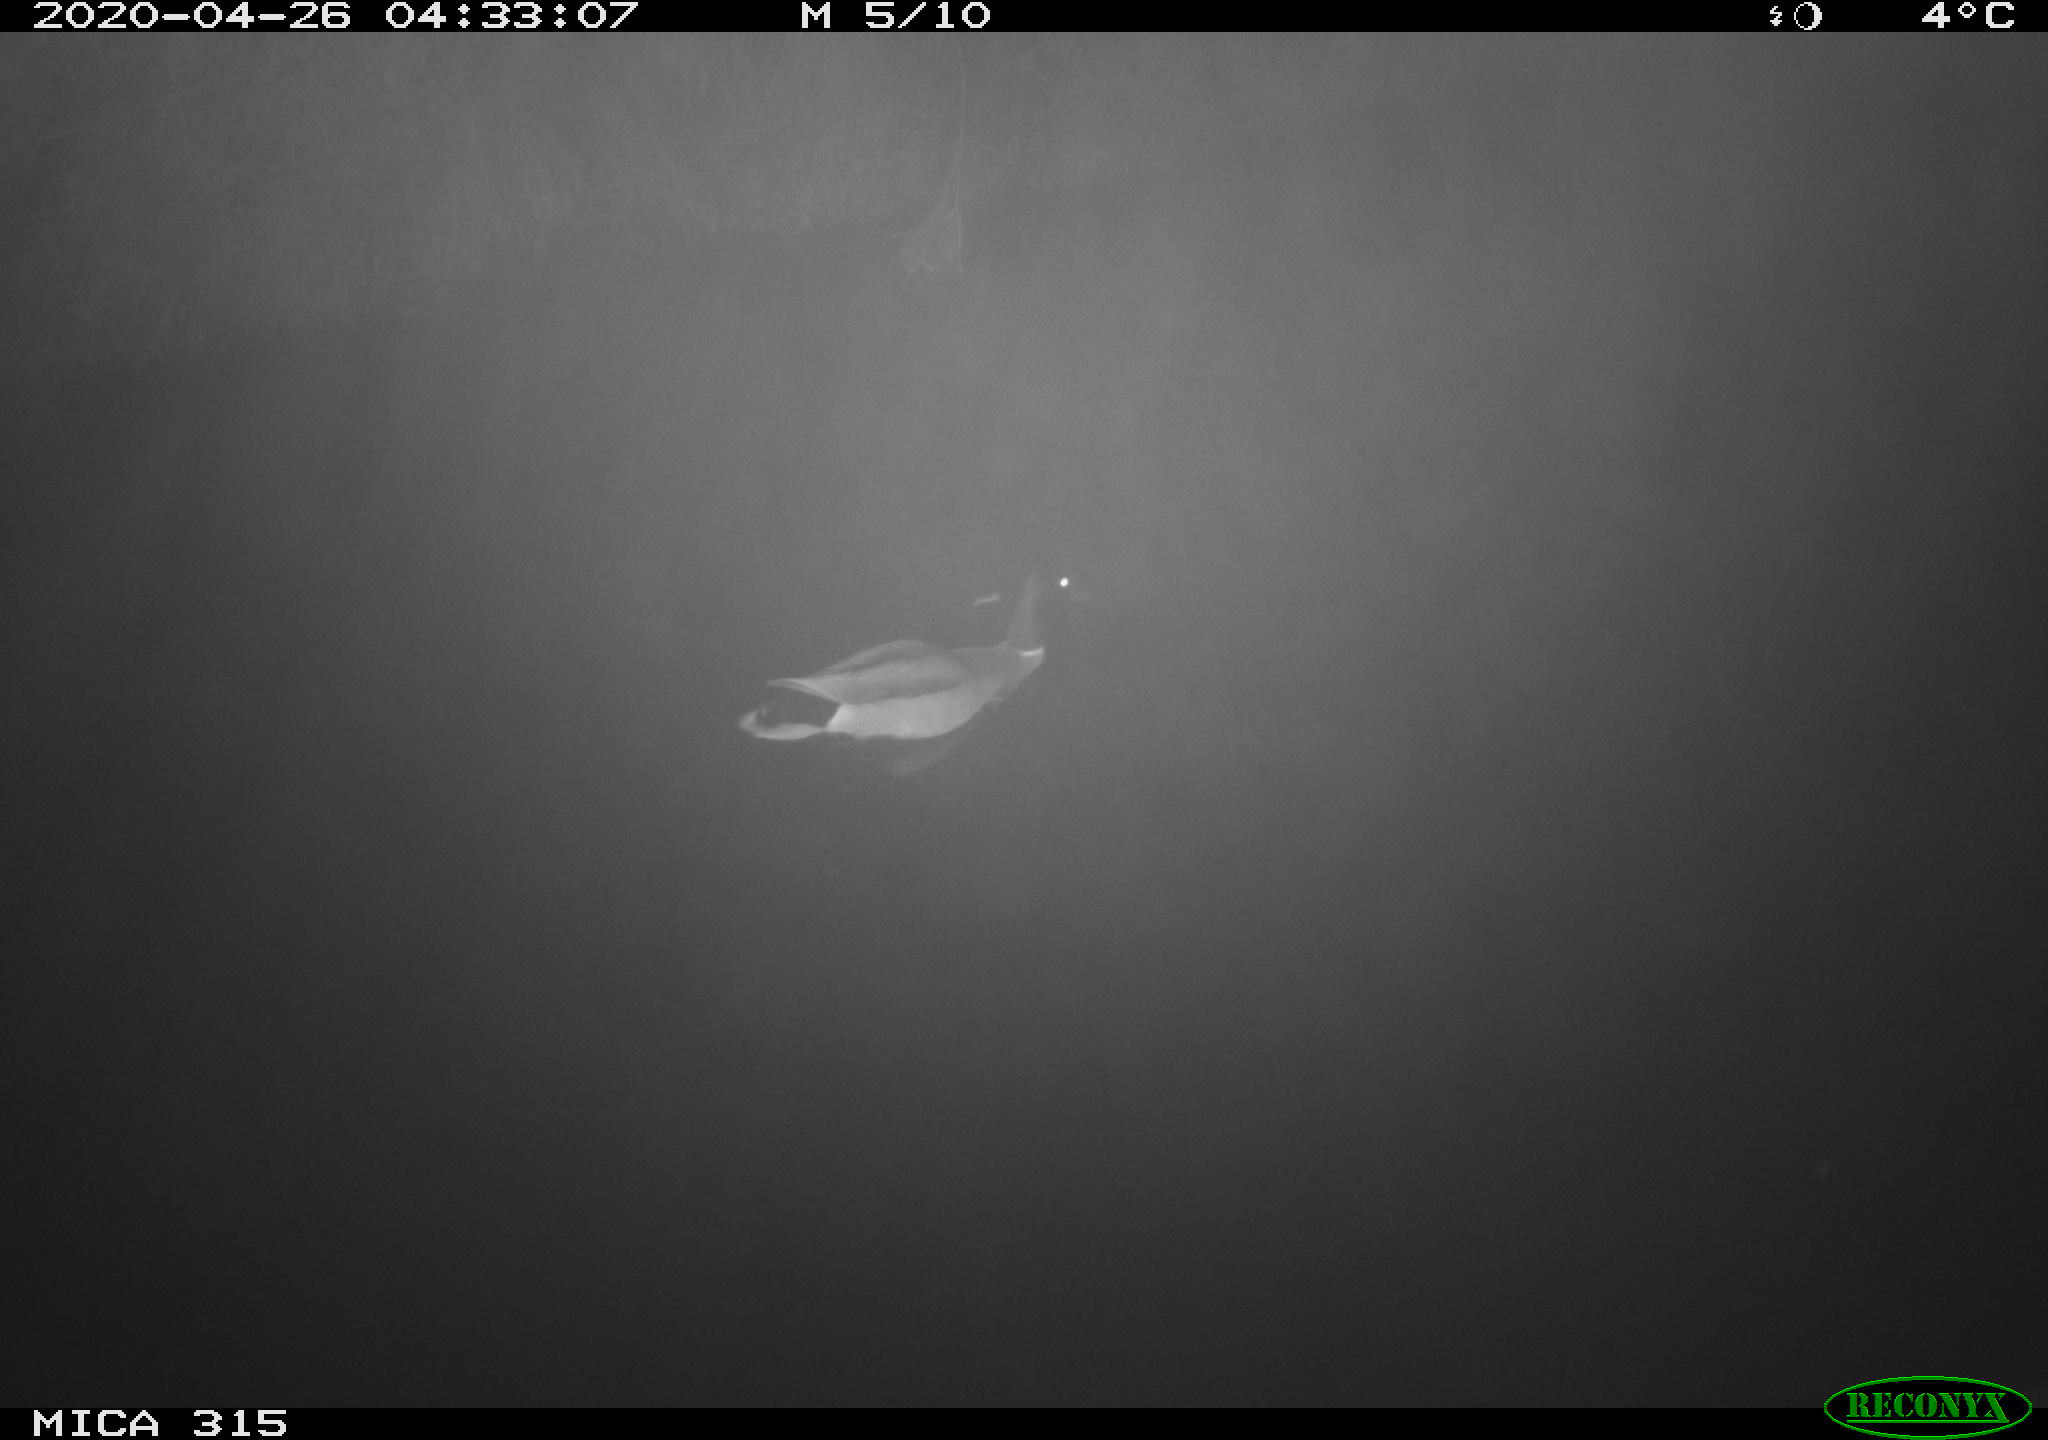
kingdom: Animalia
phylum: Chordata
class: Aves
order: Anseriformes
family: Anatidae
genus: Anas
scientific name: Anas platyrhynchos
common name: Mallard
